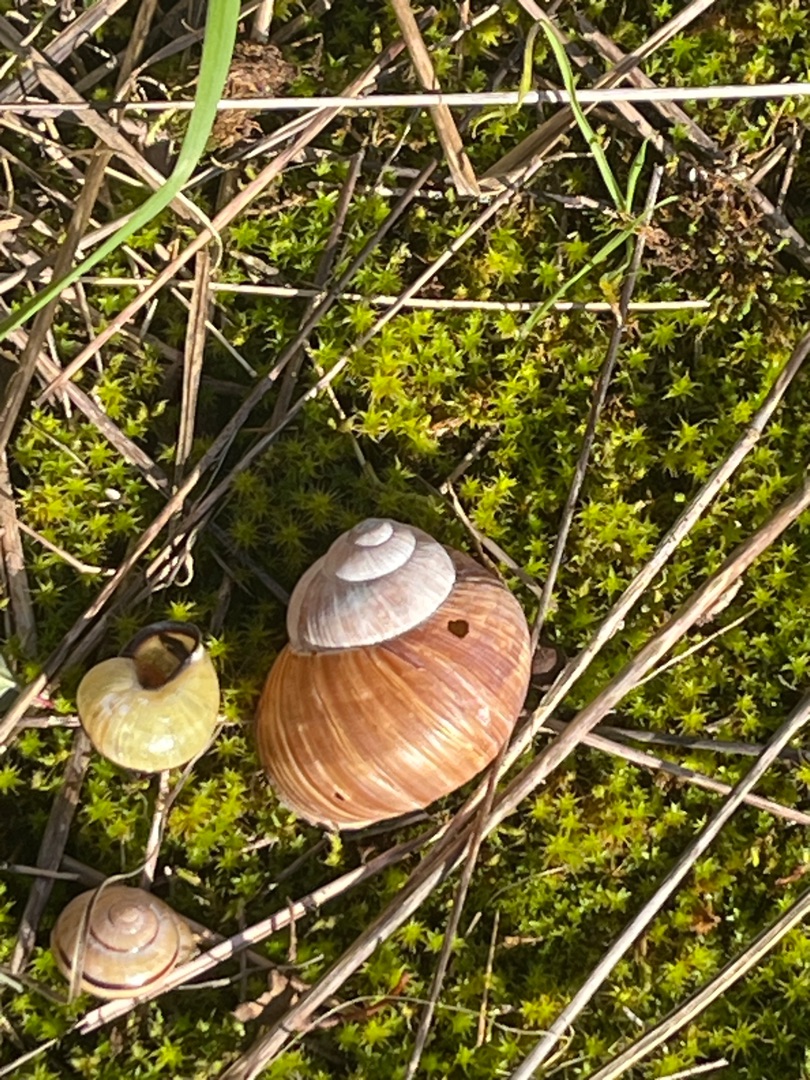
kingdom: Animalia
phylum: Mollusca
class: Gastropoda
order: Stylommatophora
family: Helicidae
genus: Helix
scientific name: Helix pomatia
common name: Vinbjergsnegl
